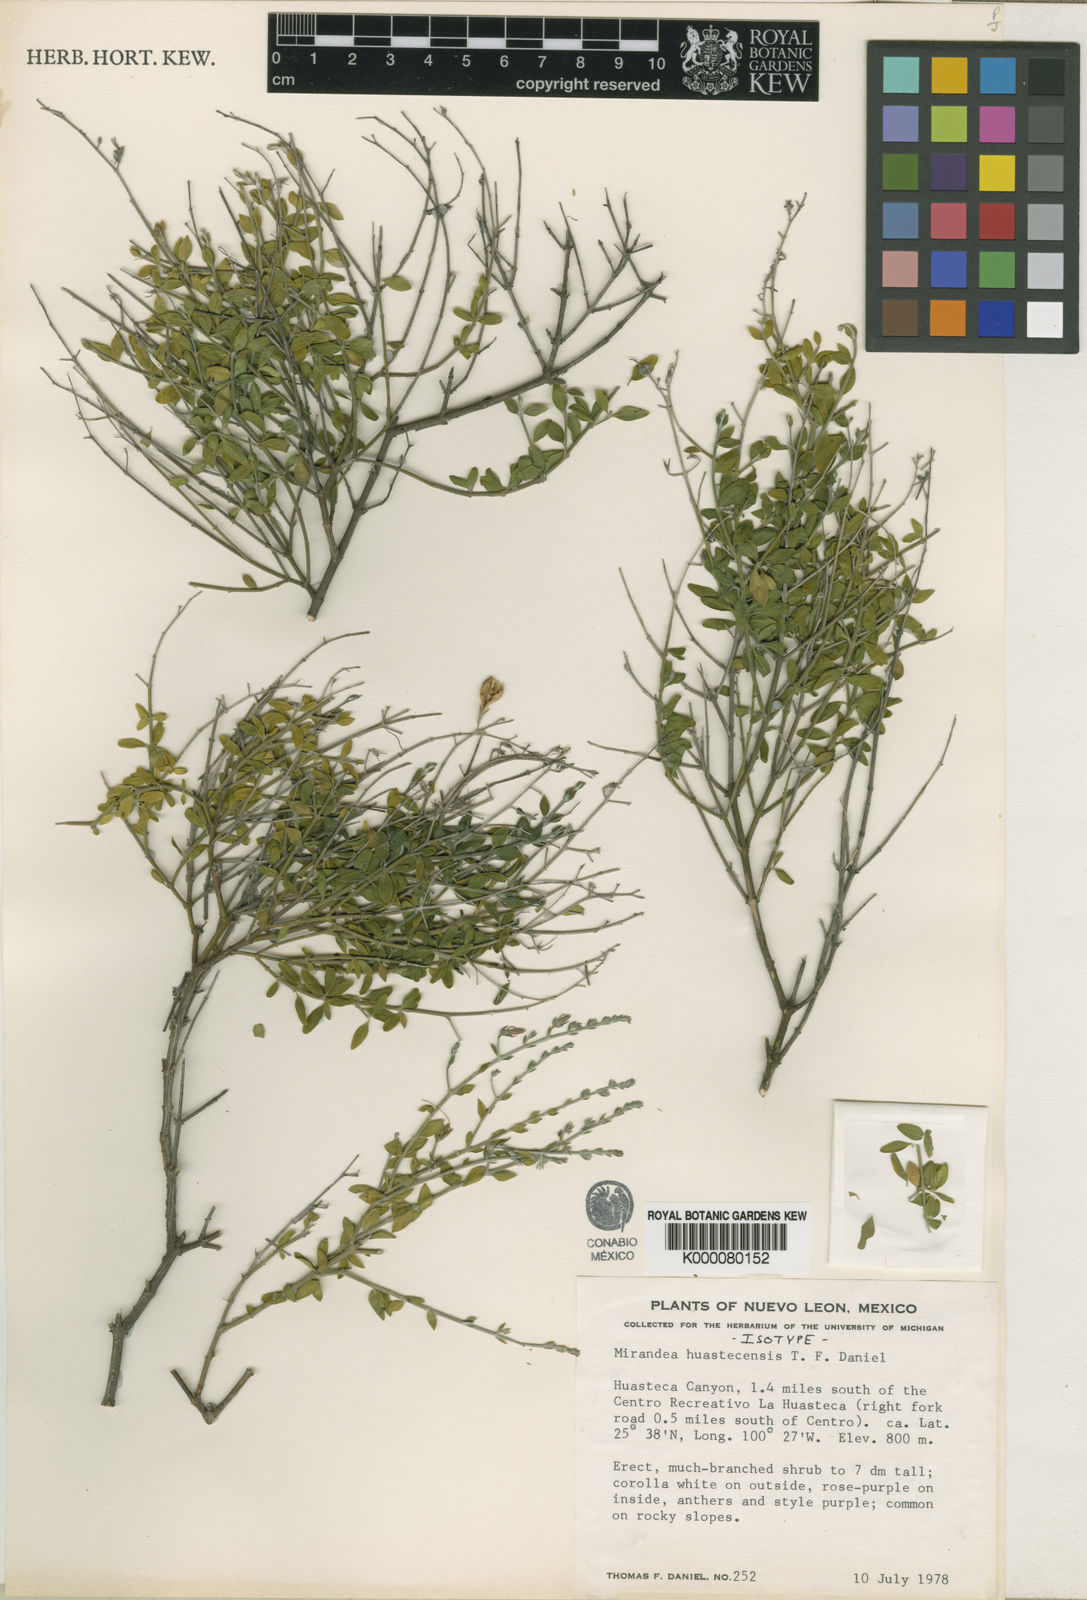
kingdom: Plantae
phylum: Tracheophyta
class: Magnoliopsida
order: Lamiales
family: Acanthaceae
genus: Mirandea
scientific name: Mirandea huastecensis
